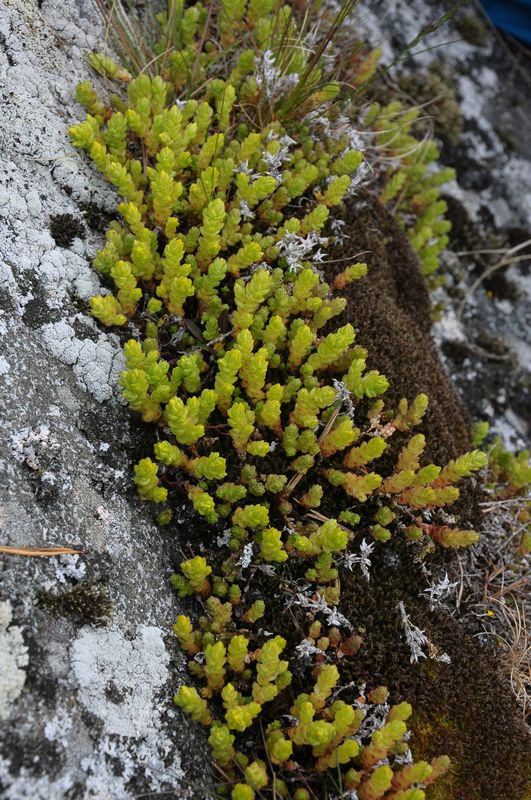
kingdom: Plantae
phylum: Tracheophyta
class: Magnoliopsida
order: Saxifragales
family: Crassulaceae
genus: Sedum
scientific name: Sedum acre
